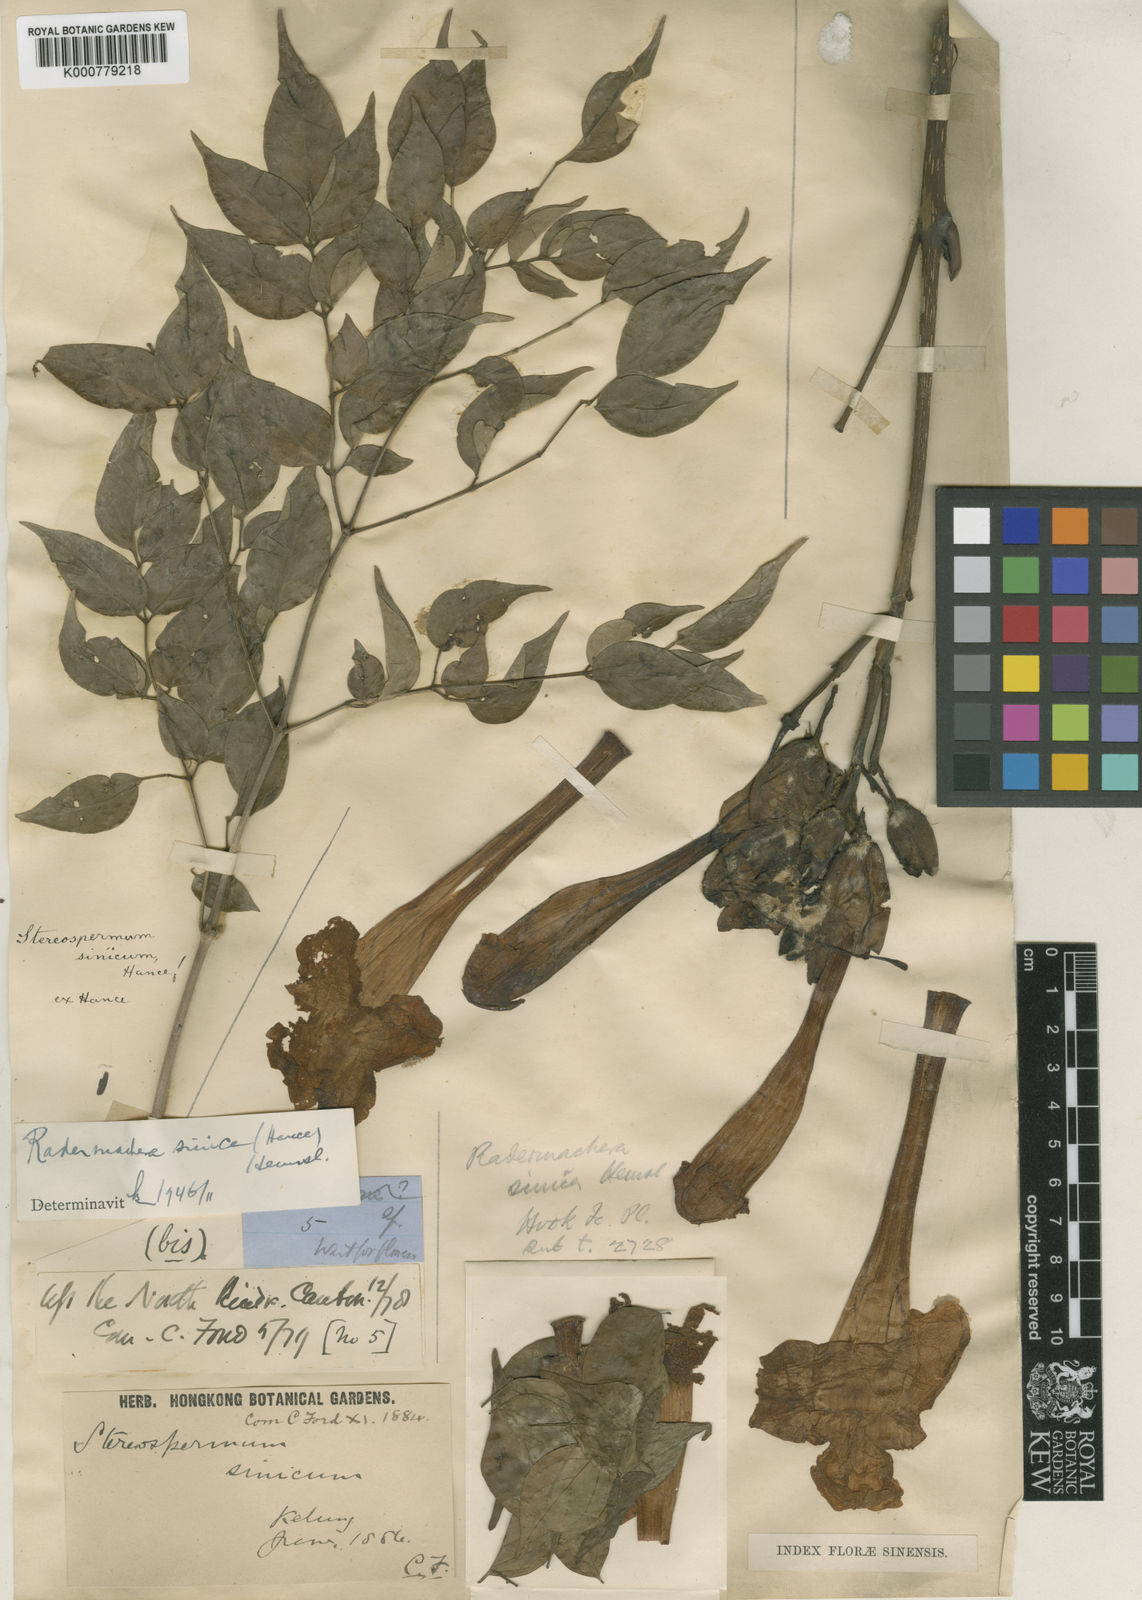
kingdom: Plantae
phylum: Tracheophyta
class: Magnoliopsida
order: Lamiales
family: Bignoniaceae
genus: Radermachera
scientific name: Radermachera sinica
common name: China doll plant
